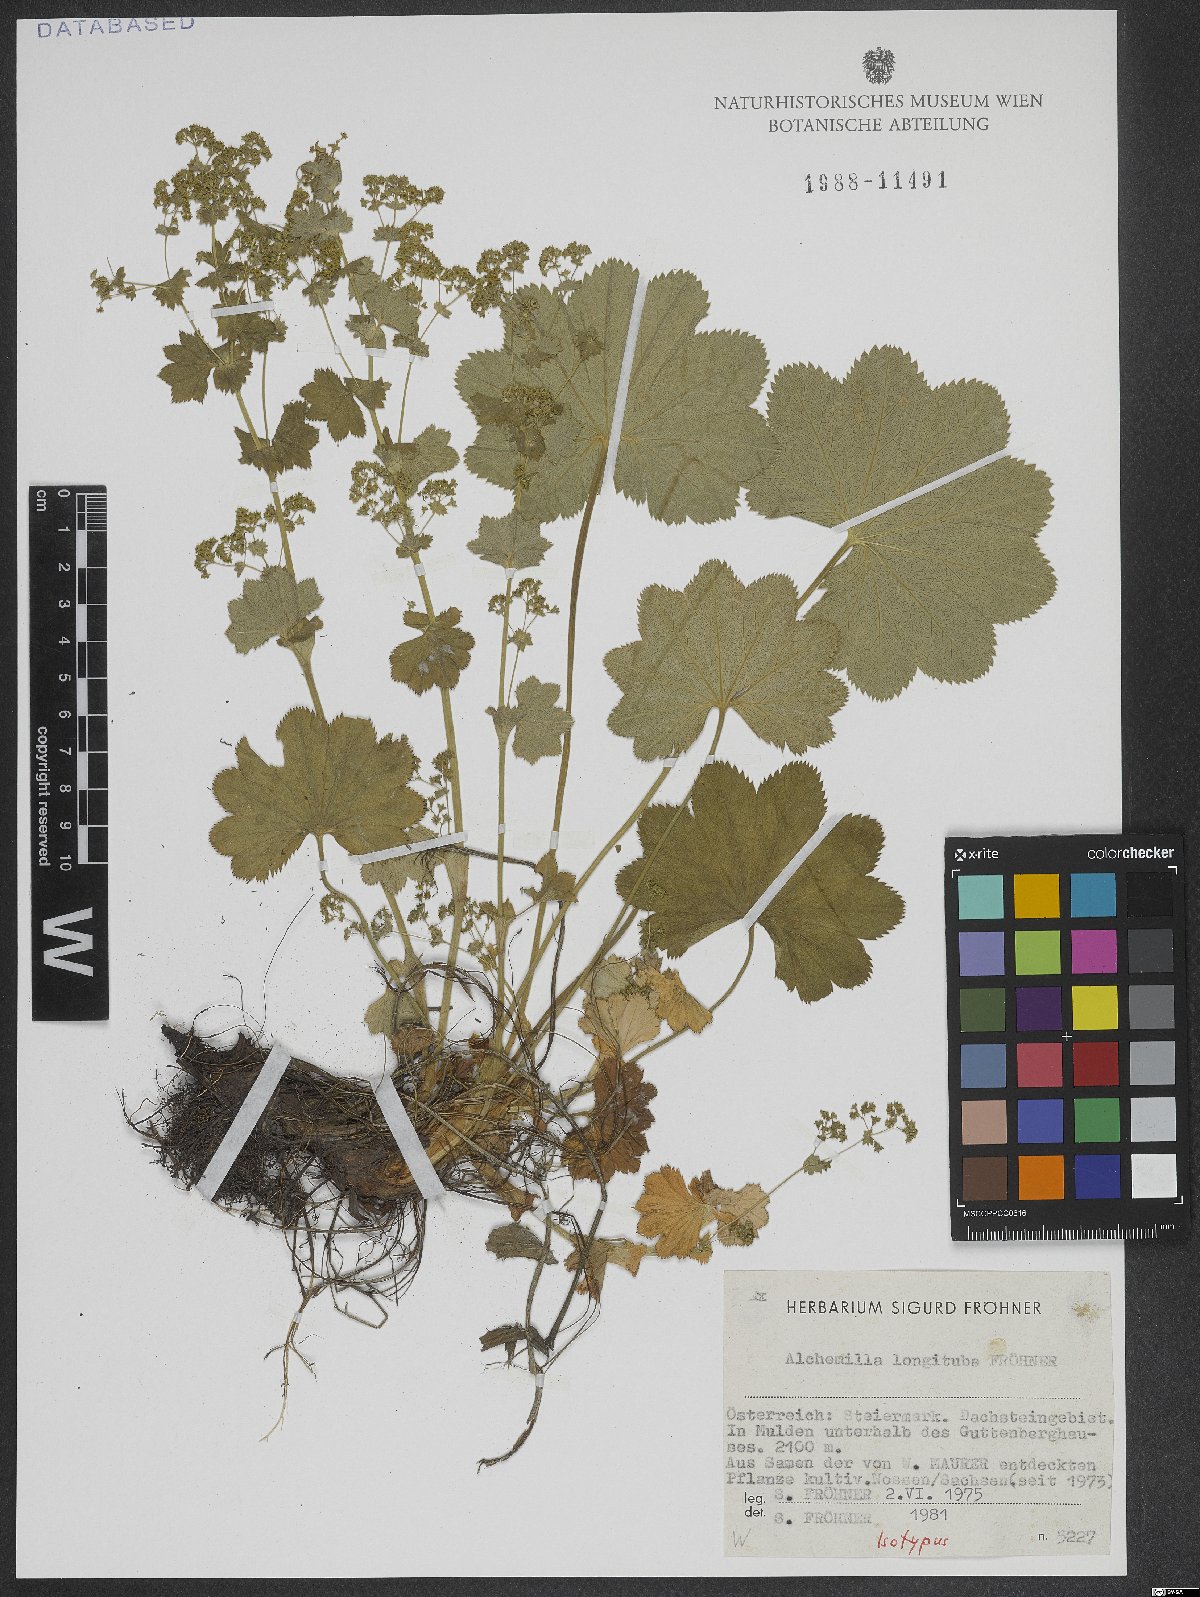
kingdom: Plantae
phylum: Tracheophyta
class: Magnoliopsida
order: Rosales
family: Rosaceae
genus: Alchemilla
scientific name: Alchemilla longituba
